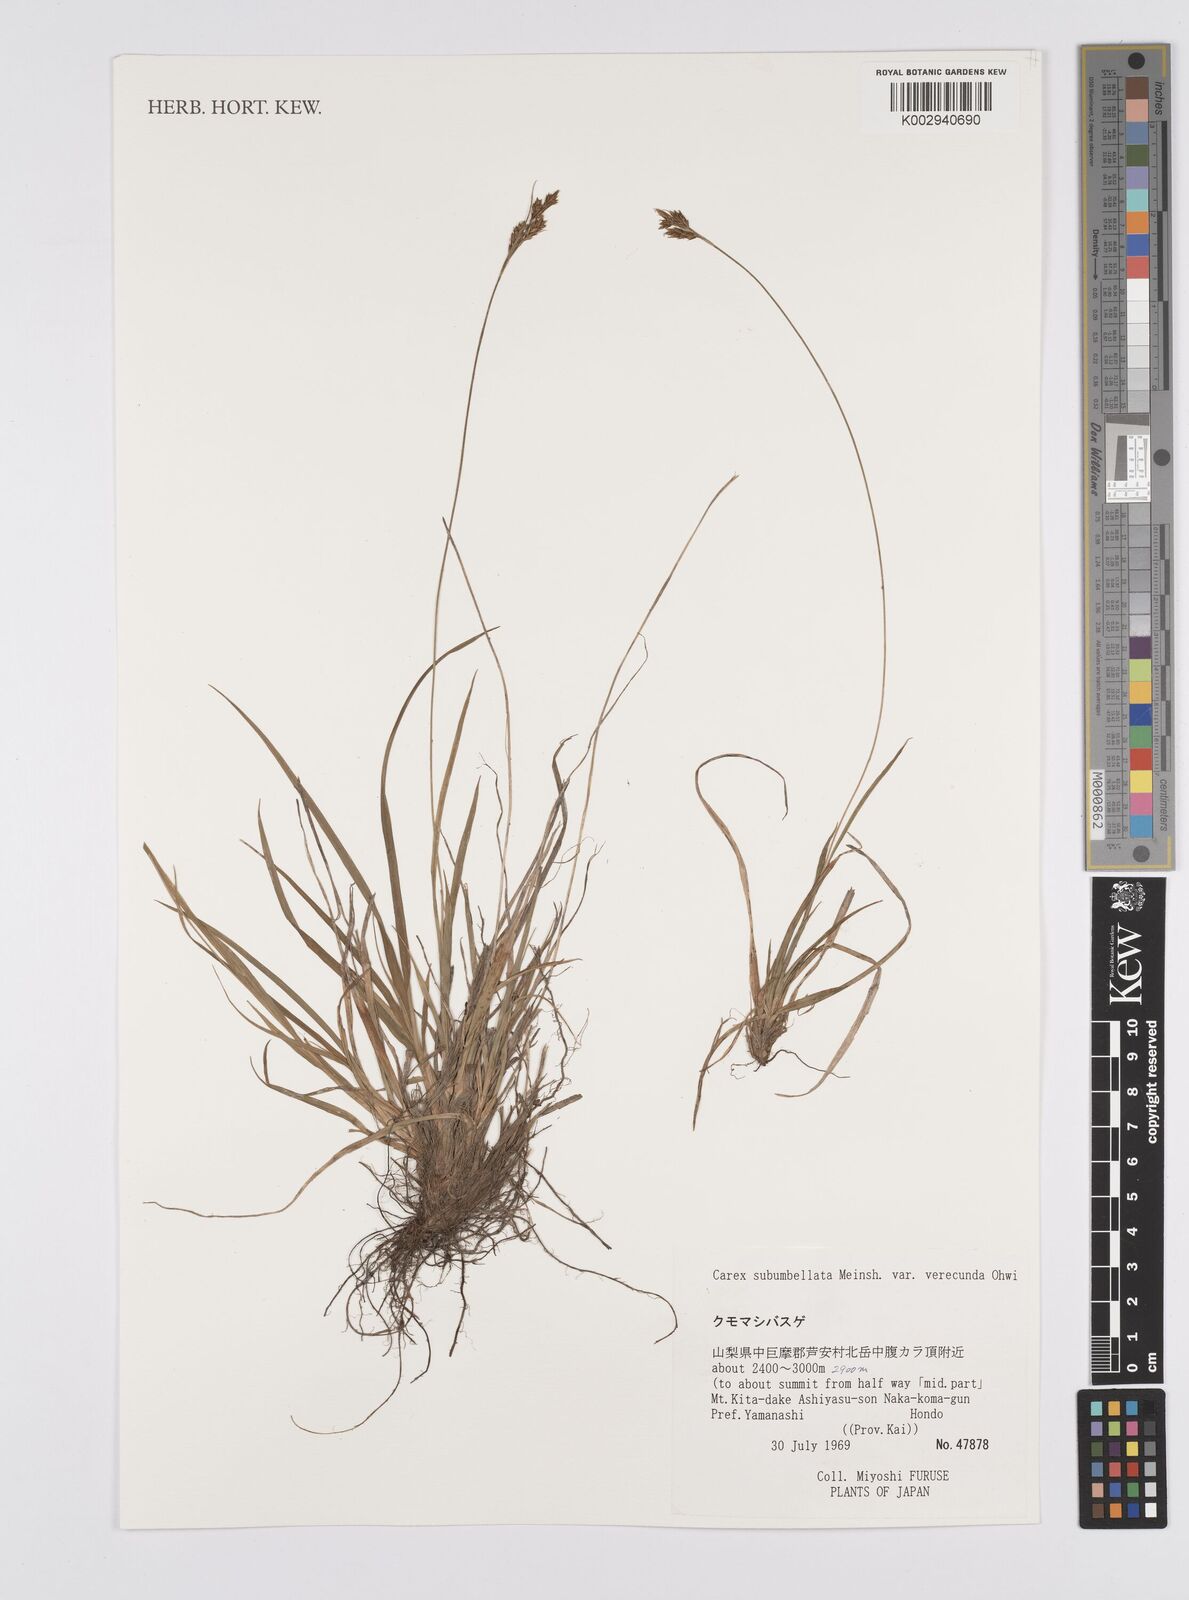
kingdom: Plantae
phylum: Tracheophyta
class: Liliopsida
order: Poales
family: Cyperaceae
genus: Carex
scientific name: Carex subumbellata
